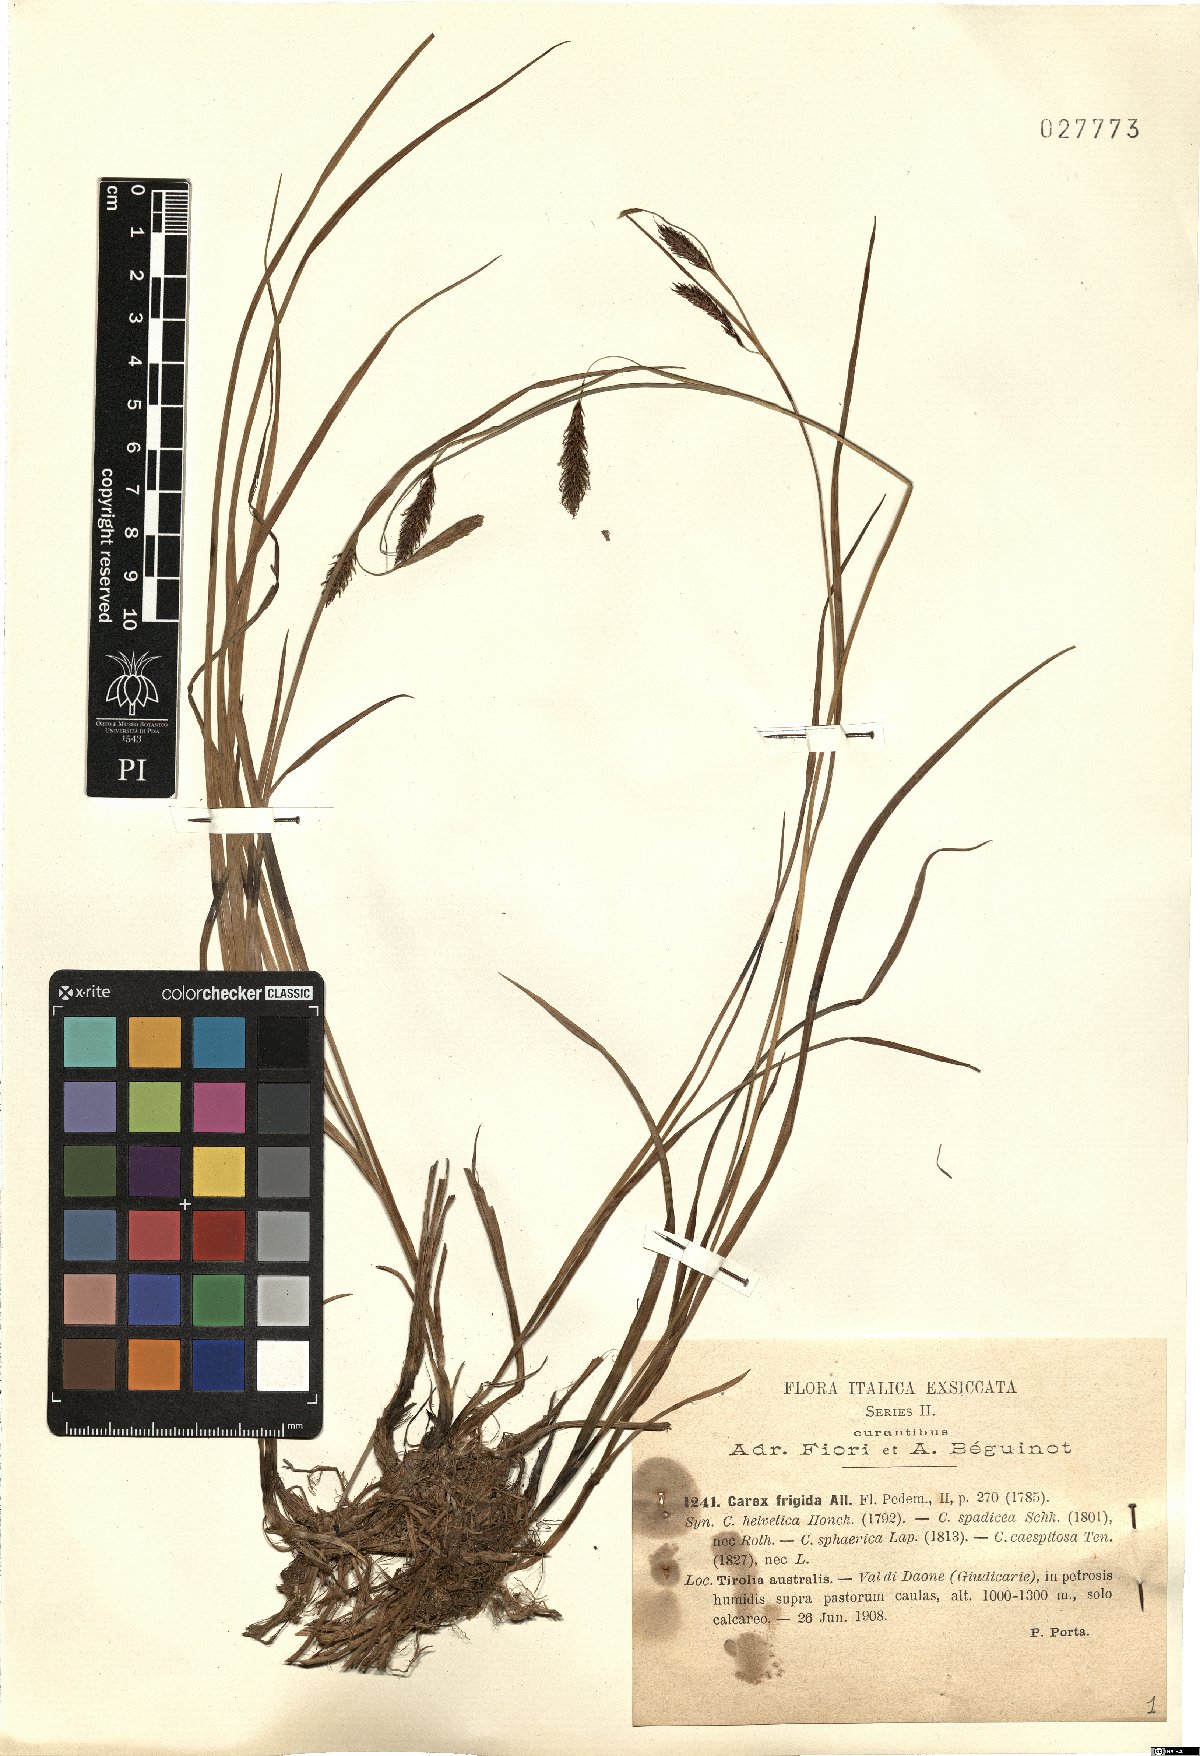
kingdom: Plantae
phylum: Tracheophyta
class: Liliopsida
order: Poales
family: Cyperaceae
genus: Carex
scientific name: Carex frigida
